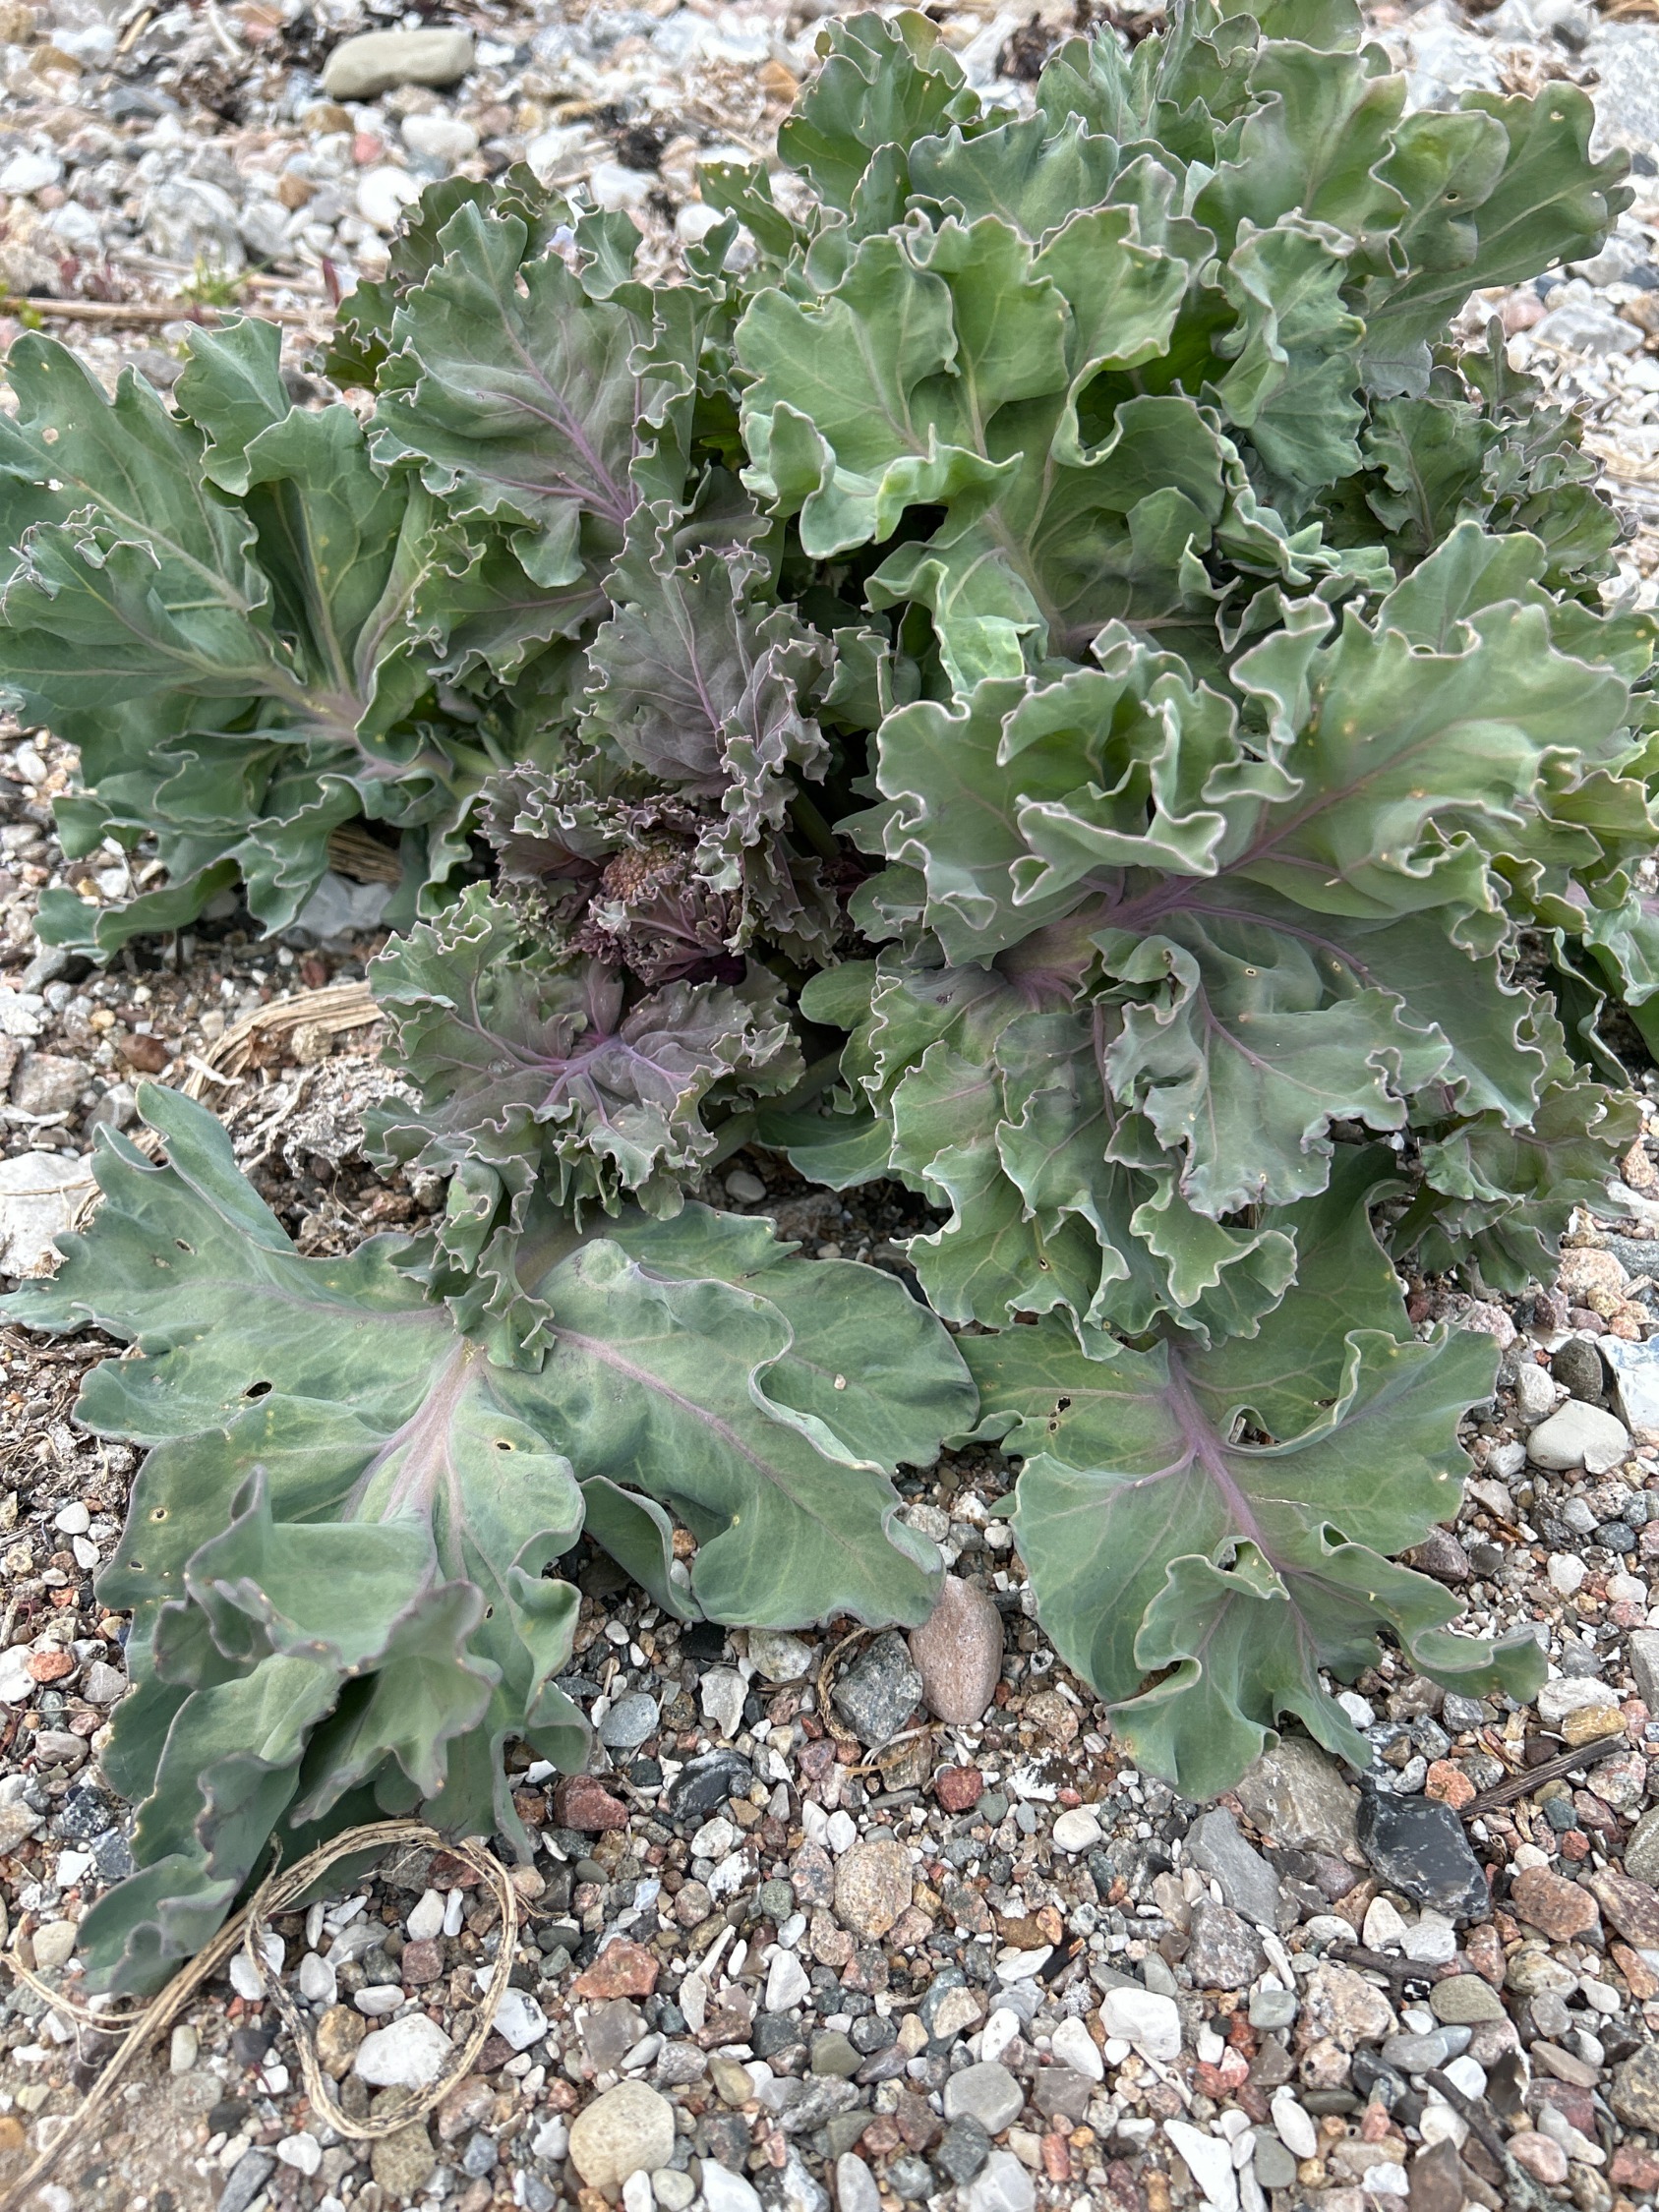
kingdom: Plantae
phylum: Tracheophyta
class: Magnoliopsida
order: Brassicales
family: Brassicaceae
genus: Crambe
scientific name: Crambe maritima
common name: Strandkål
